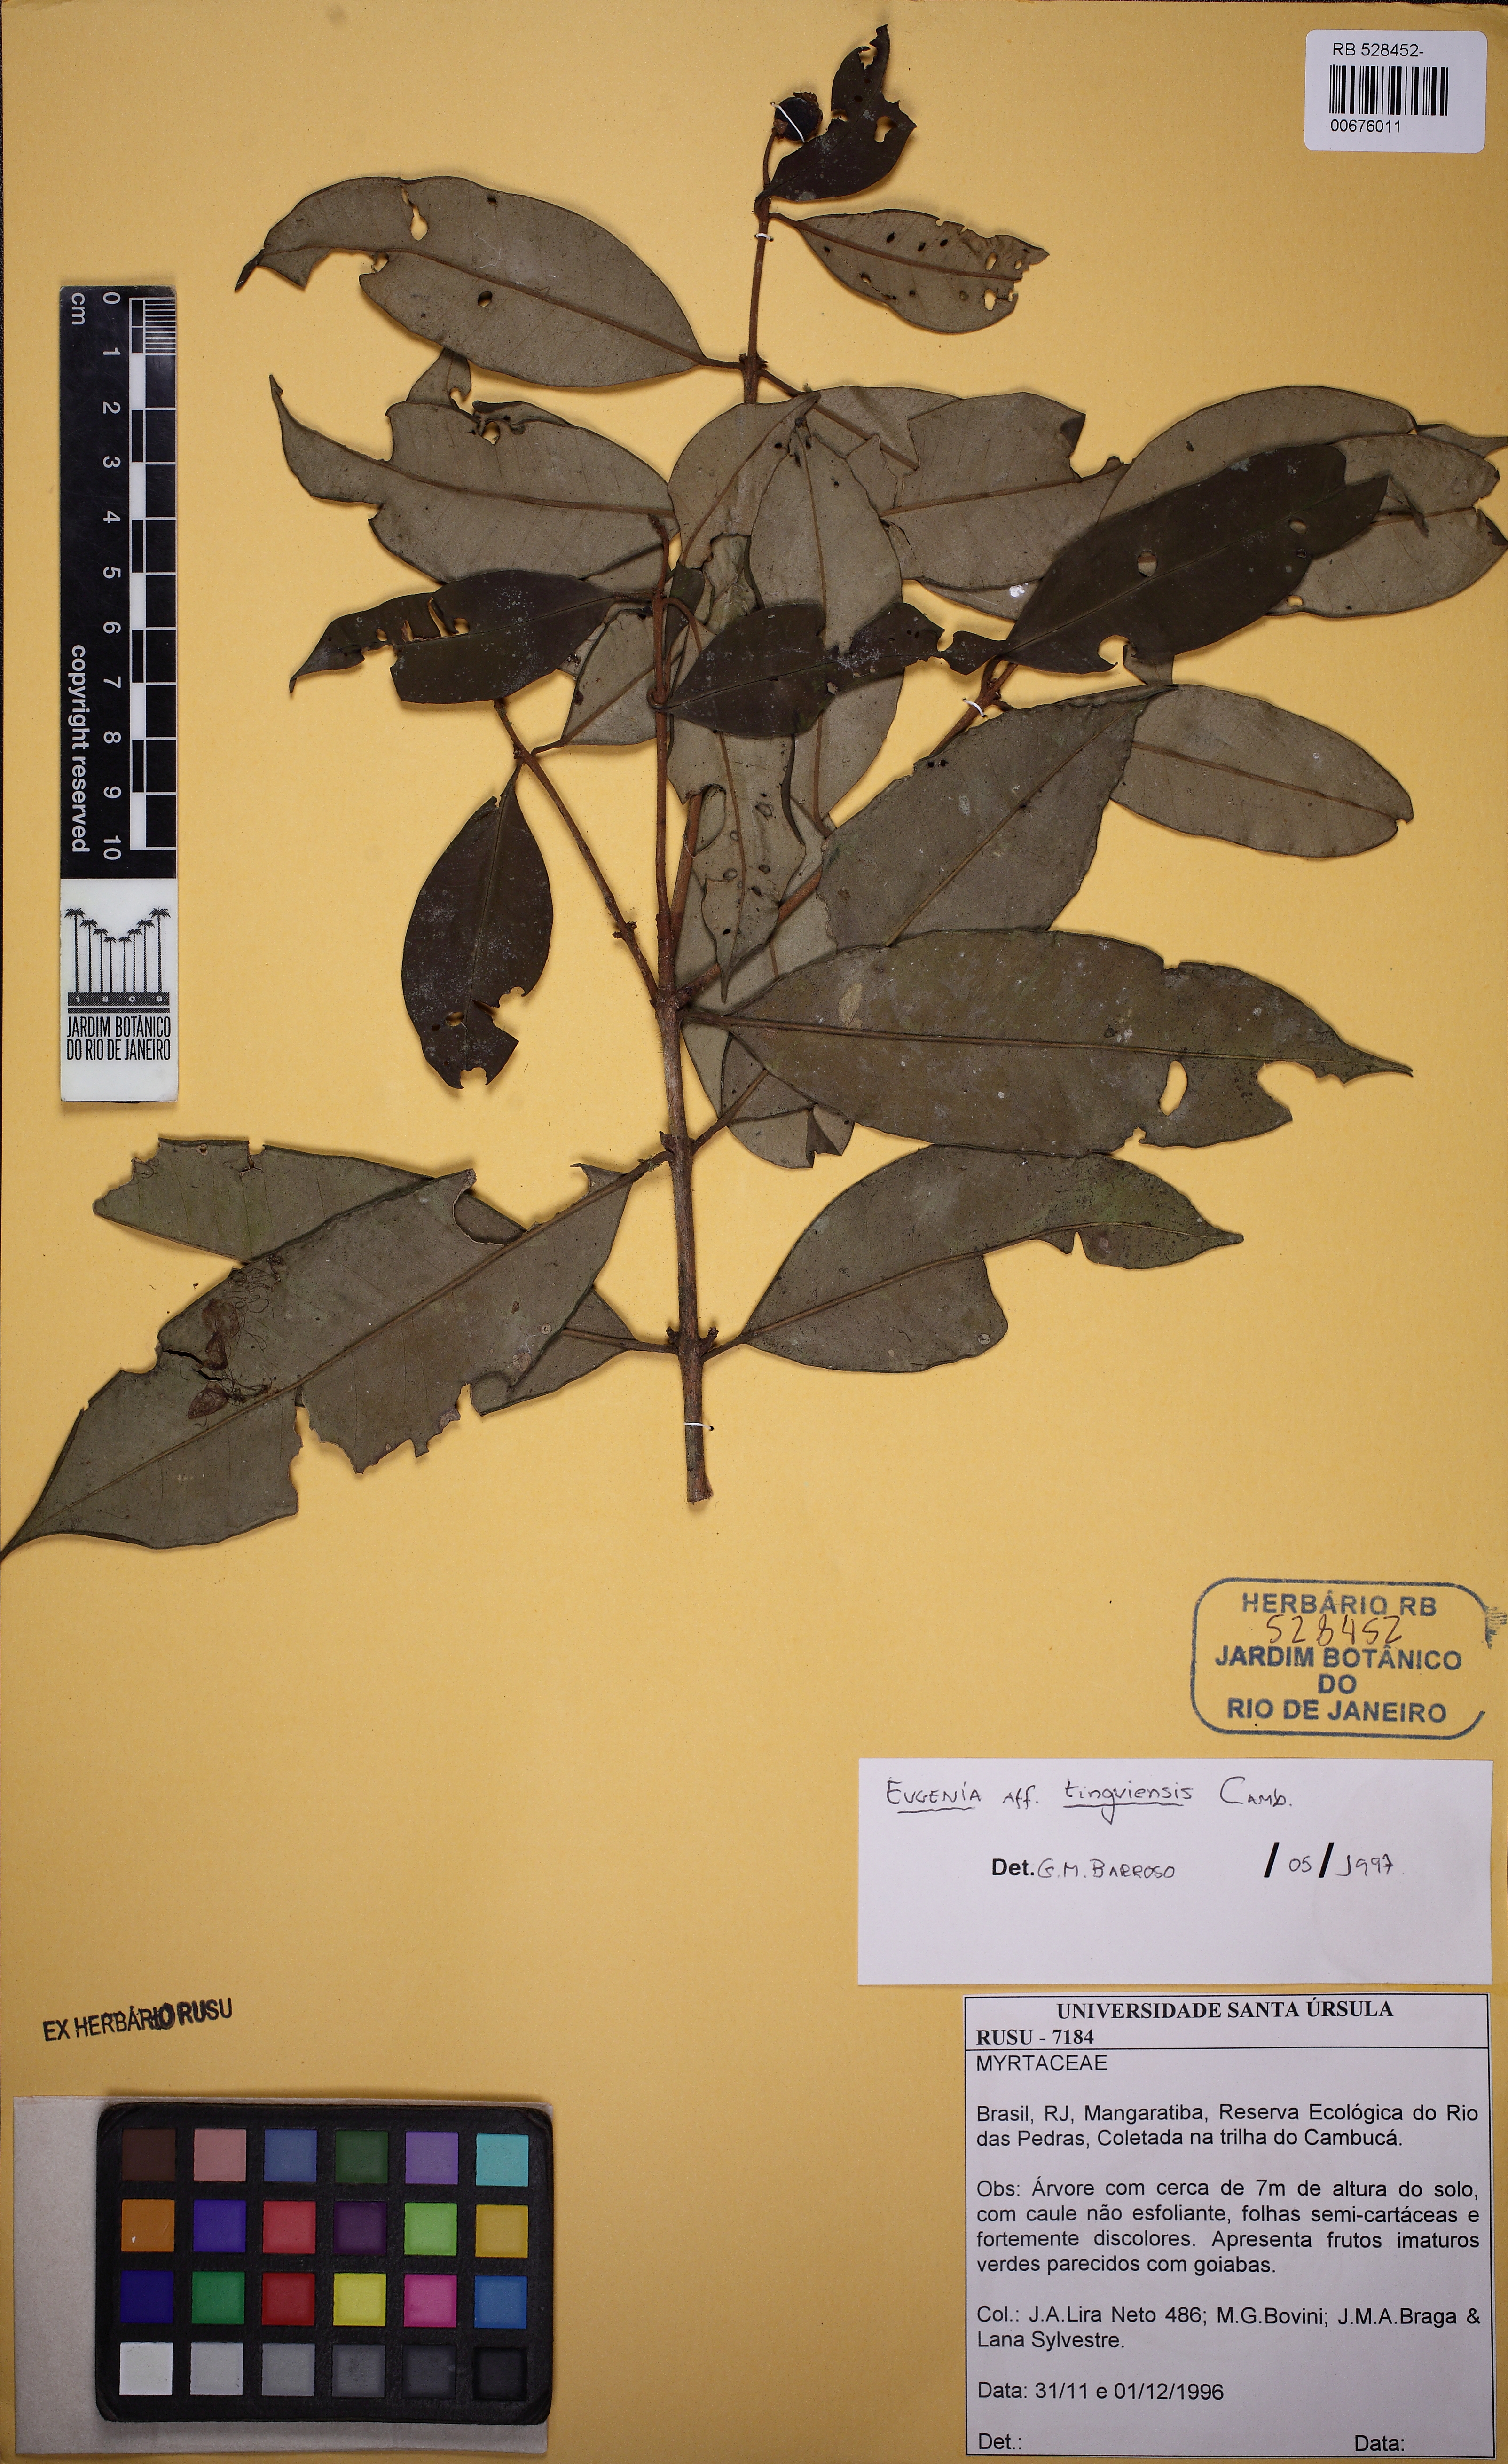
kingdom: Plantae
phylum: Tracheophyta
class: Magnoliopsida
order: Myrtales
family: Myrtaceae
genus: Eugenia
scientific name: Eugenia pisiformis
